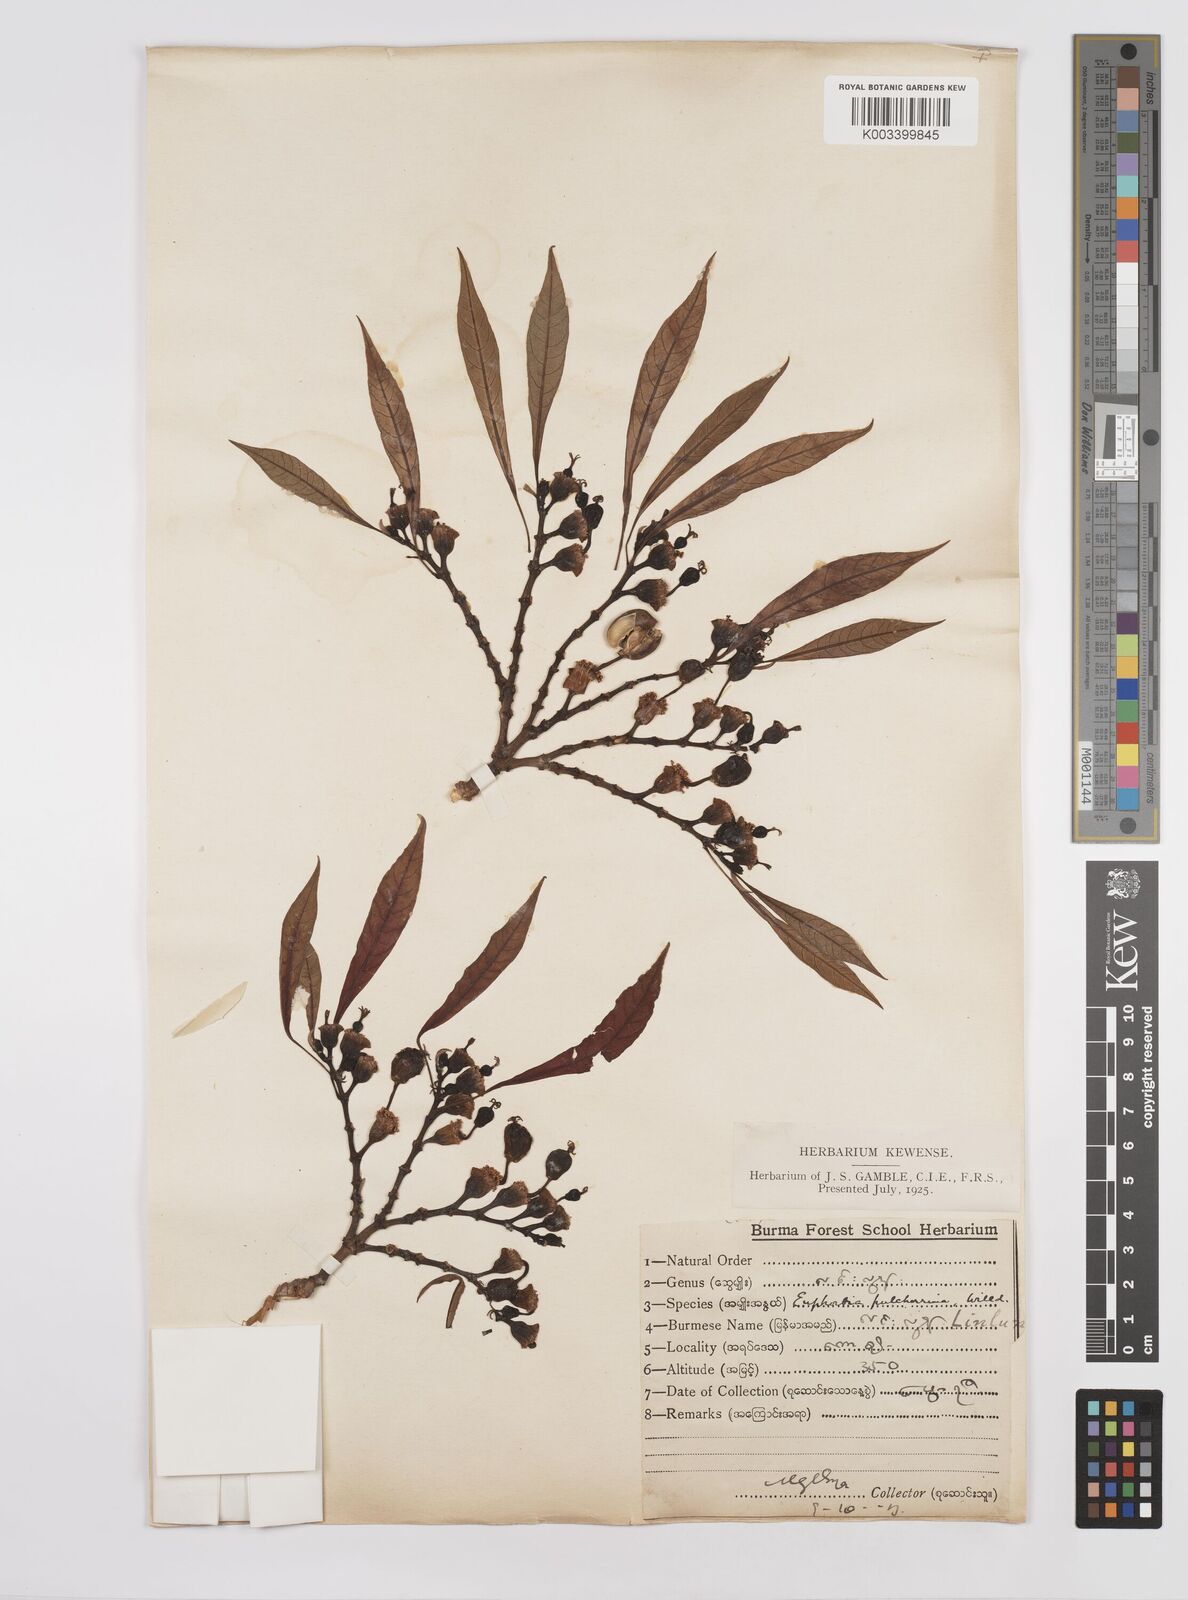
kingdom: Plantae
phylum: Tracheophyta
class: Magnoliopsida
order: Malpighiales
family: Euphorbiaceae
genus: Euphorbia
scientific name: Euphorbia pulcherrima
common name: Christmas-flower
